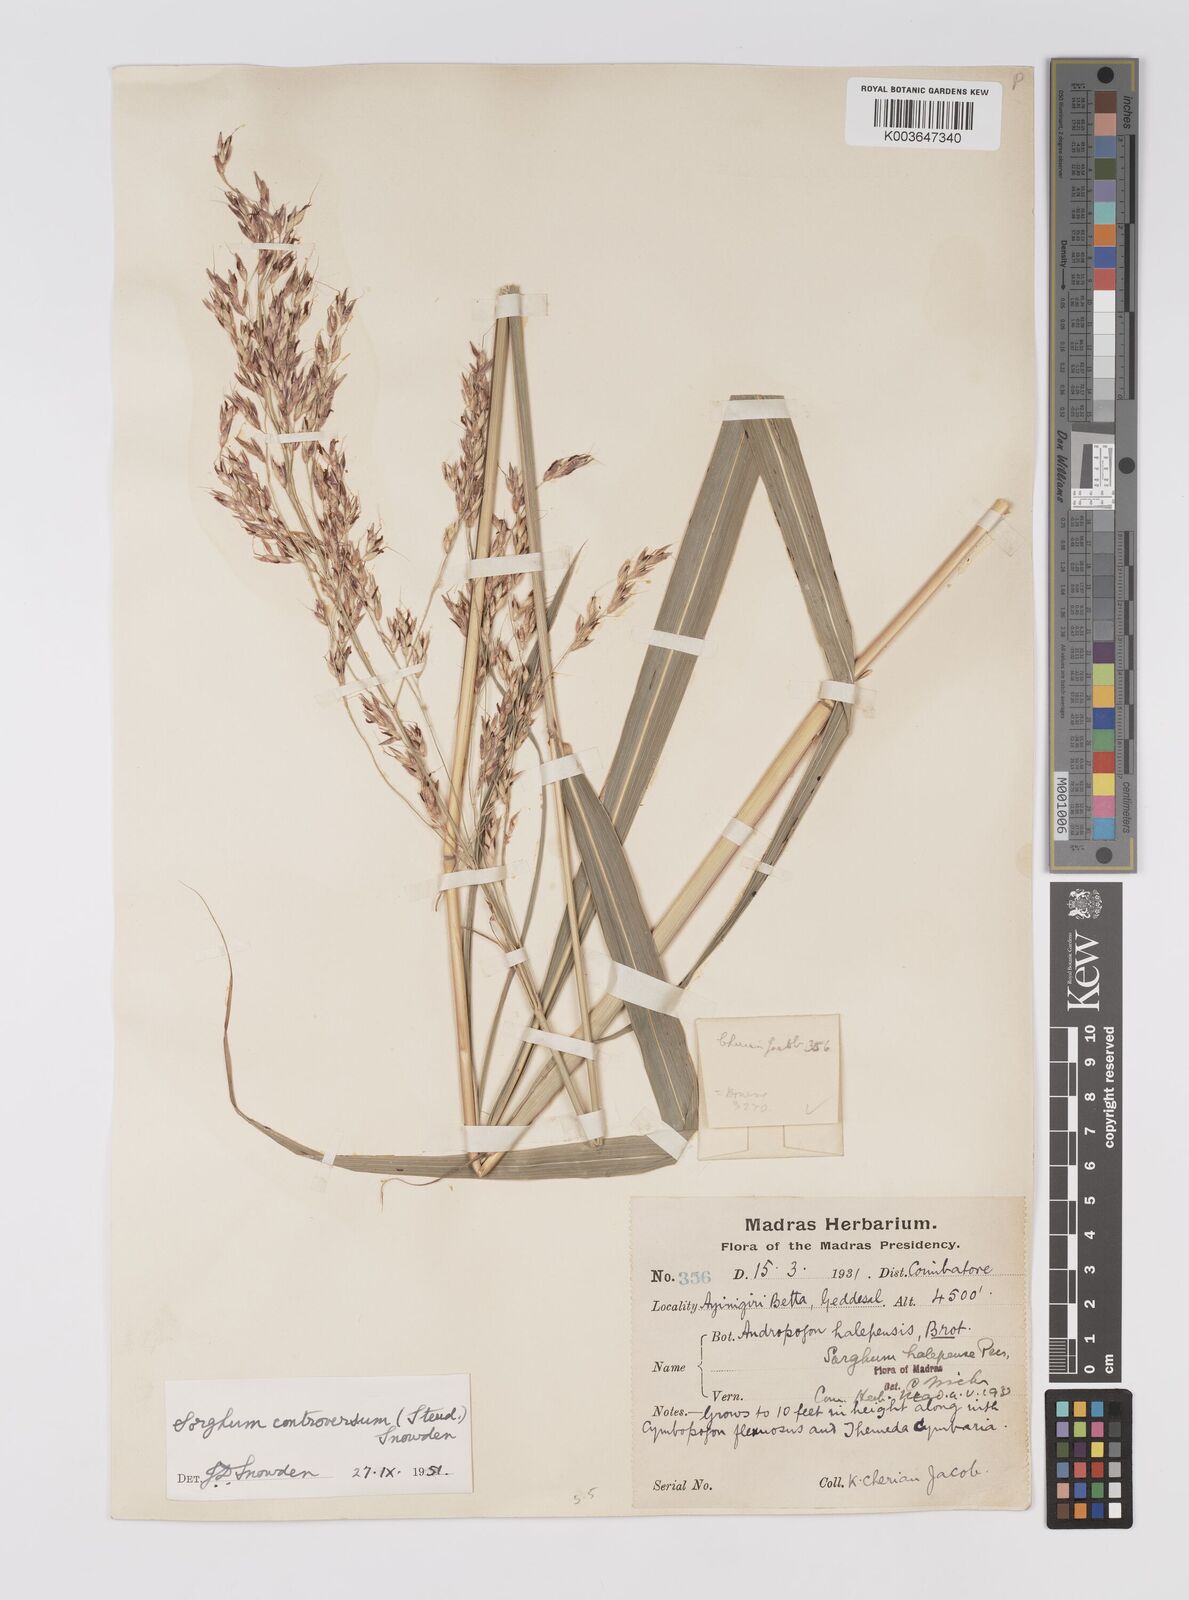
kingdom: Plantae
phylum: Tracheophyta
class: Liliopsida
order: Poales
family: Poaceae
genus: Sorghum
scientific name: Sorghum controversum
